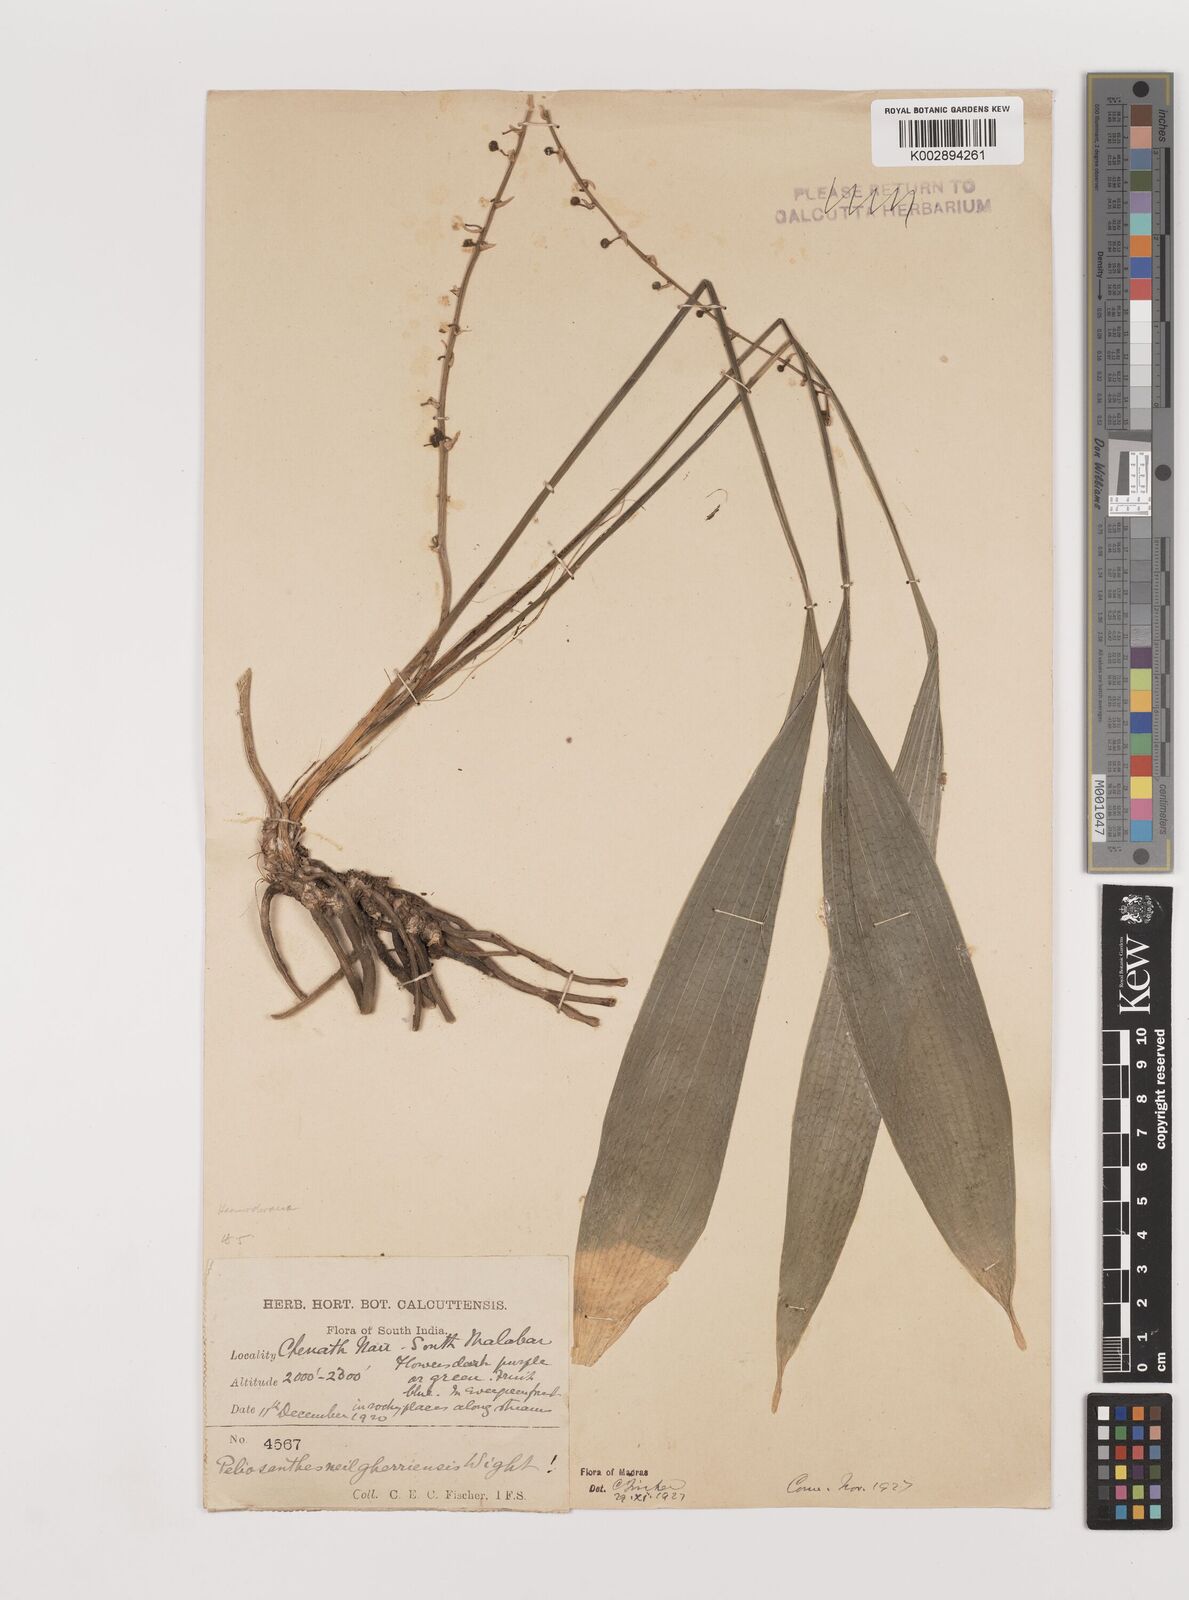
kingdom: Plantae
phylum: Tracheophyta
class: Liliopsida
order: Asparagales
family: Asparagaceae
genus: Peliosanthes
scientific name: Peliosanthes teta
